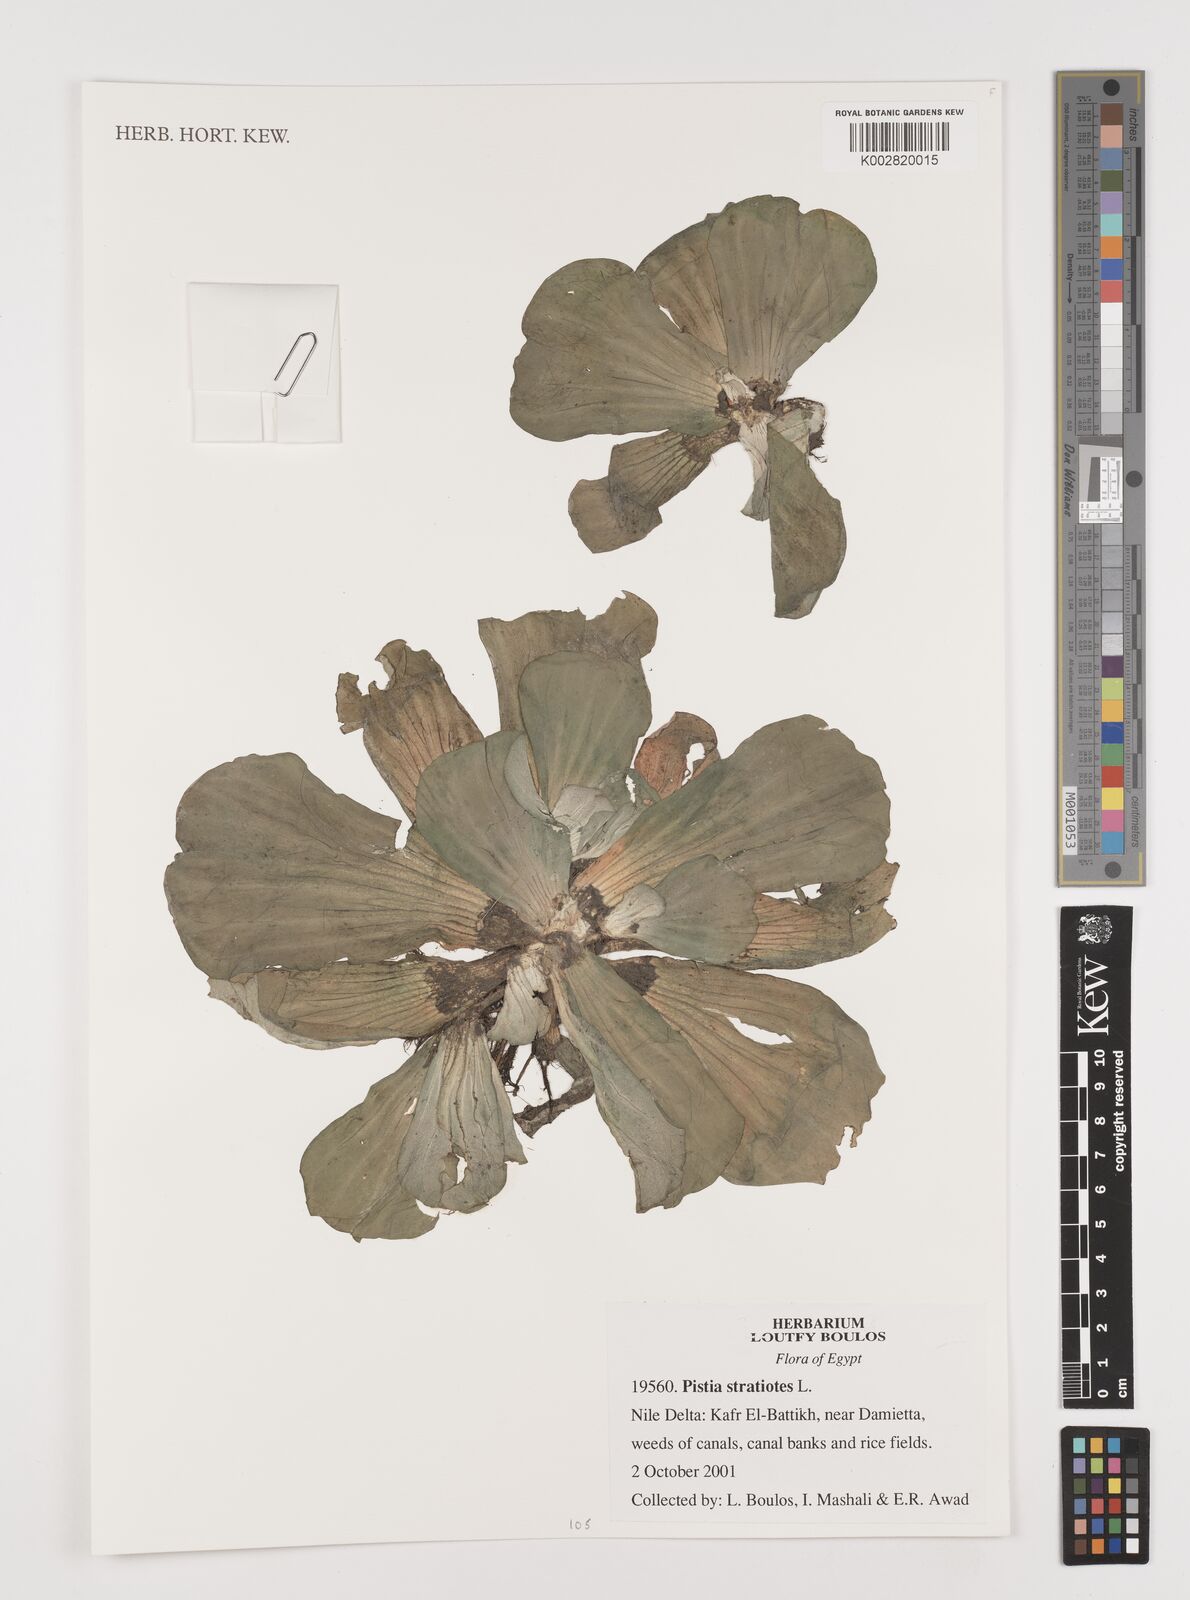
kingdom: Plantae
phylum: Tracheophyta
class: Liliopsida
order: Alismatales
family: Araceae
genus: Pistia
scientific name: Pistia stratiotes
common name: Water lettuce
